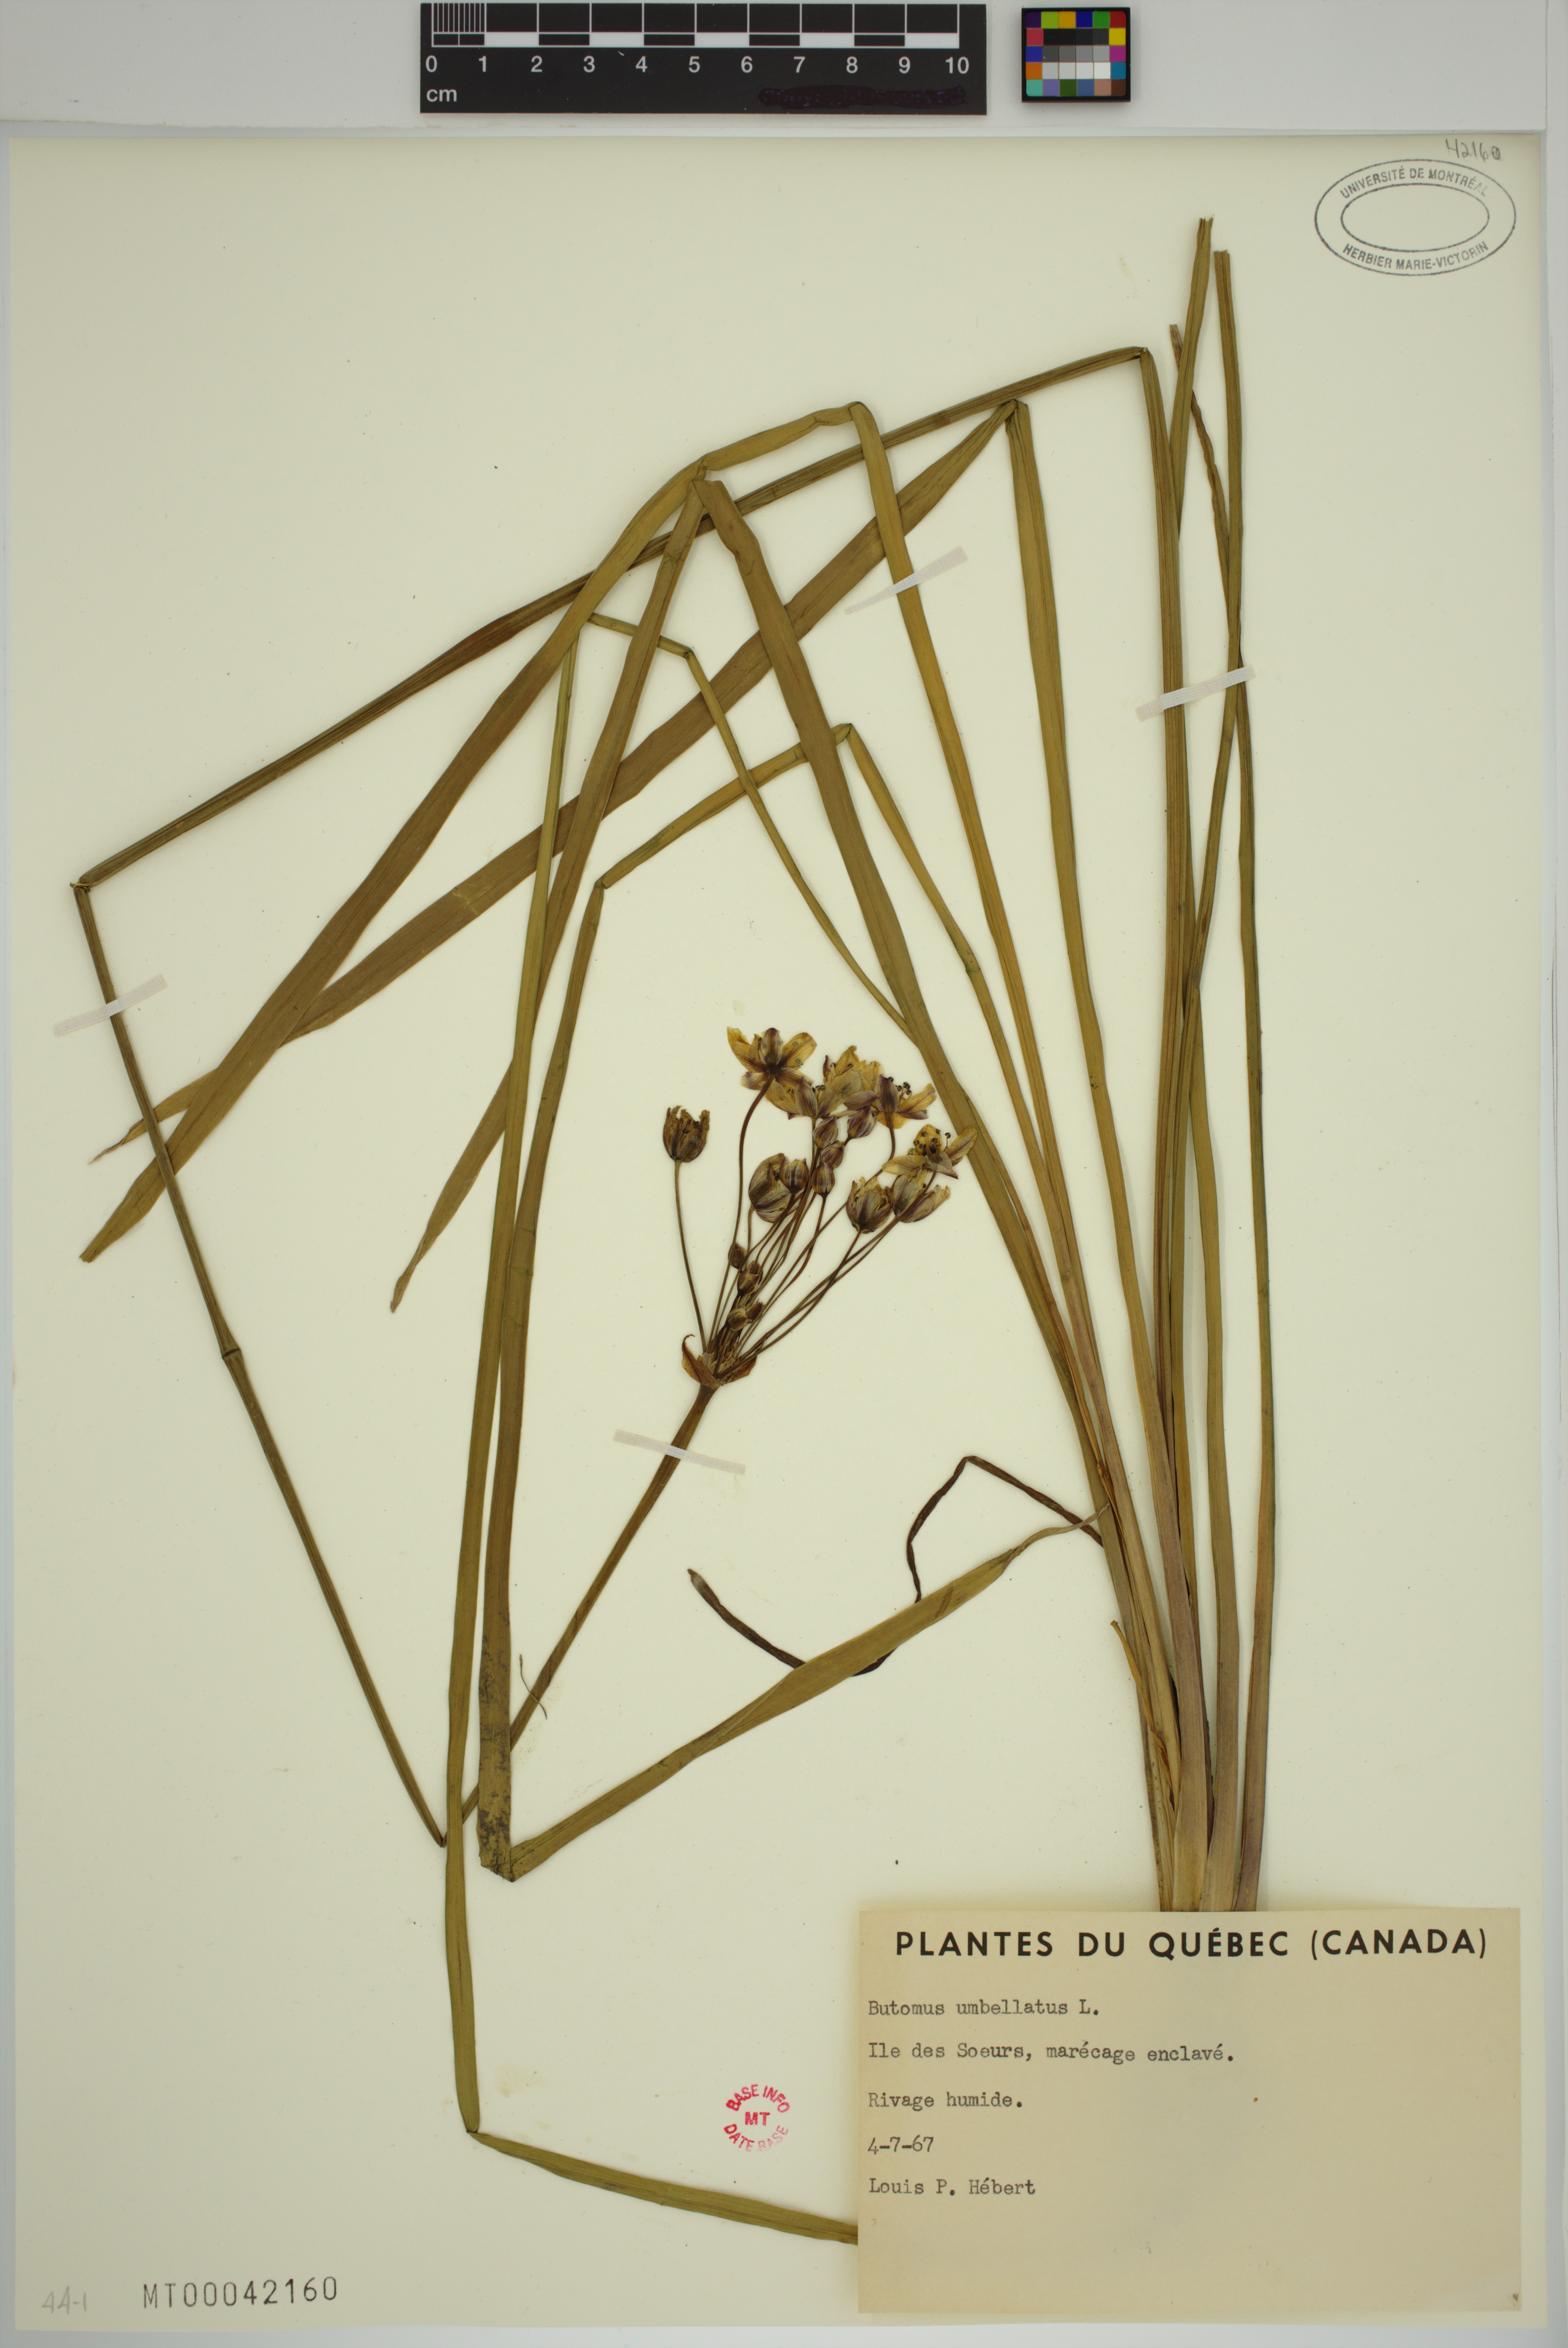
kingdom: Plantae
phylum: Tracheophyta
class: Liliopsida
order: Alismatales
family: Butomaceae
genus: Butomus
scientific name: Butomus umbellatus
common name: Flowering-rush
